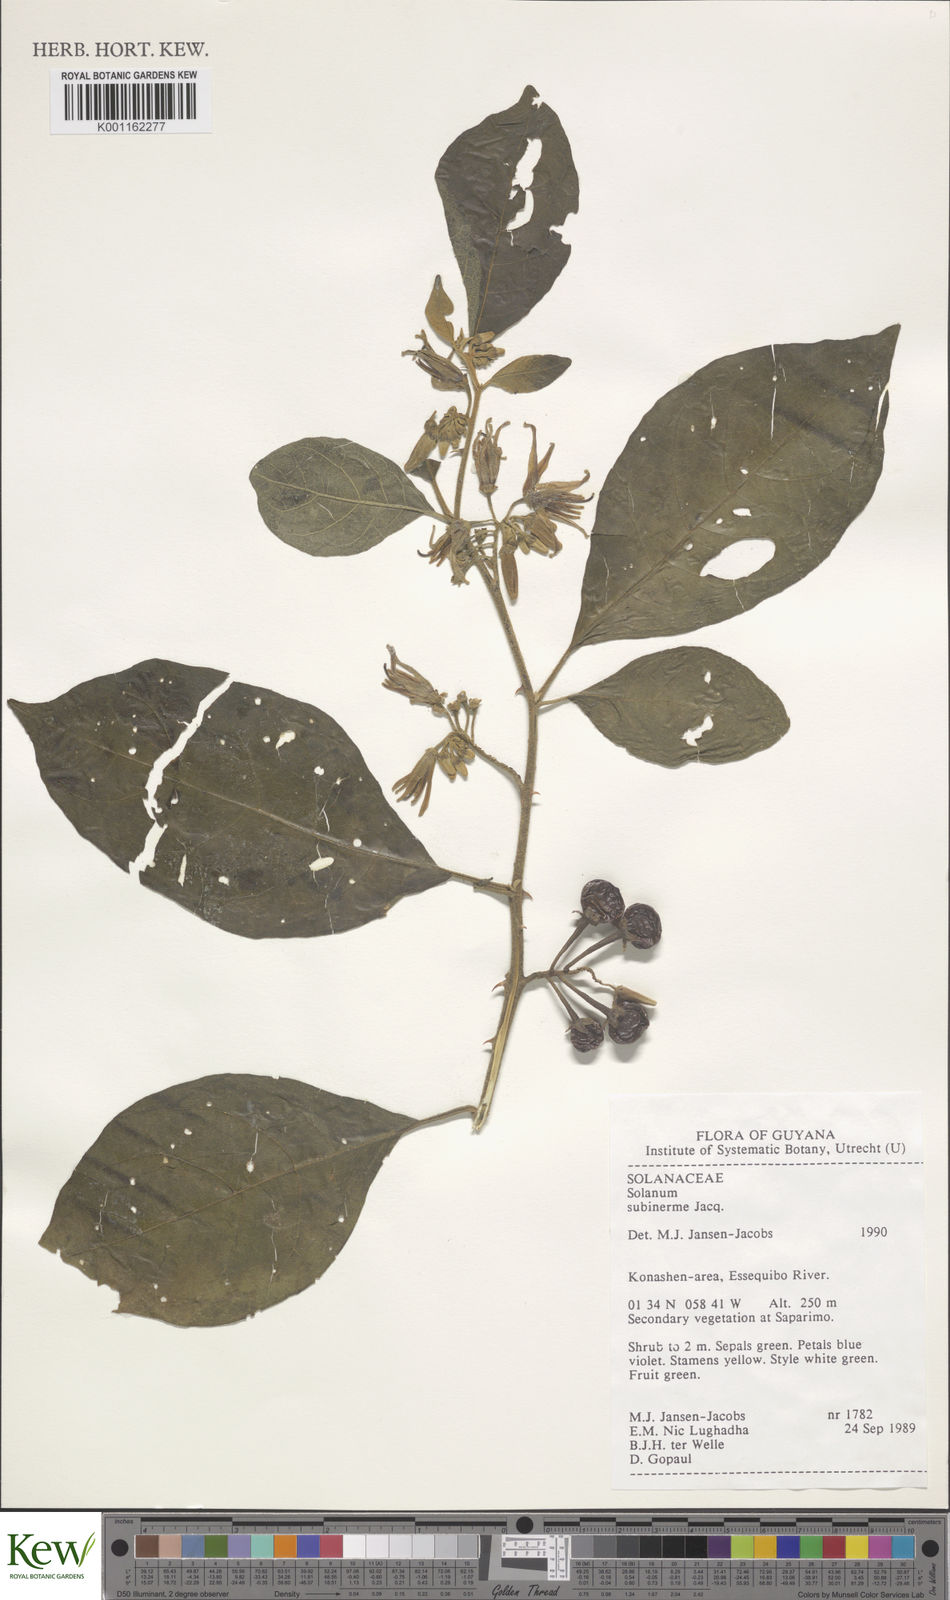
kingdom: Plantae
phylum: Tracheophyta
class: Magnoliopsida
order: Solanales
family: Solanaceae
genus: Solanum
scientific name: Solanum subinerme
